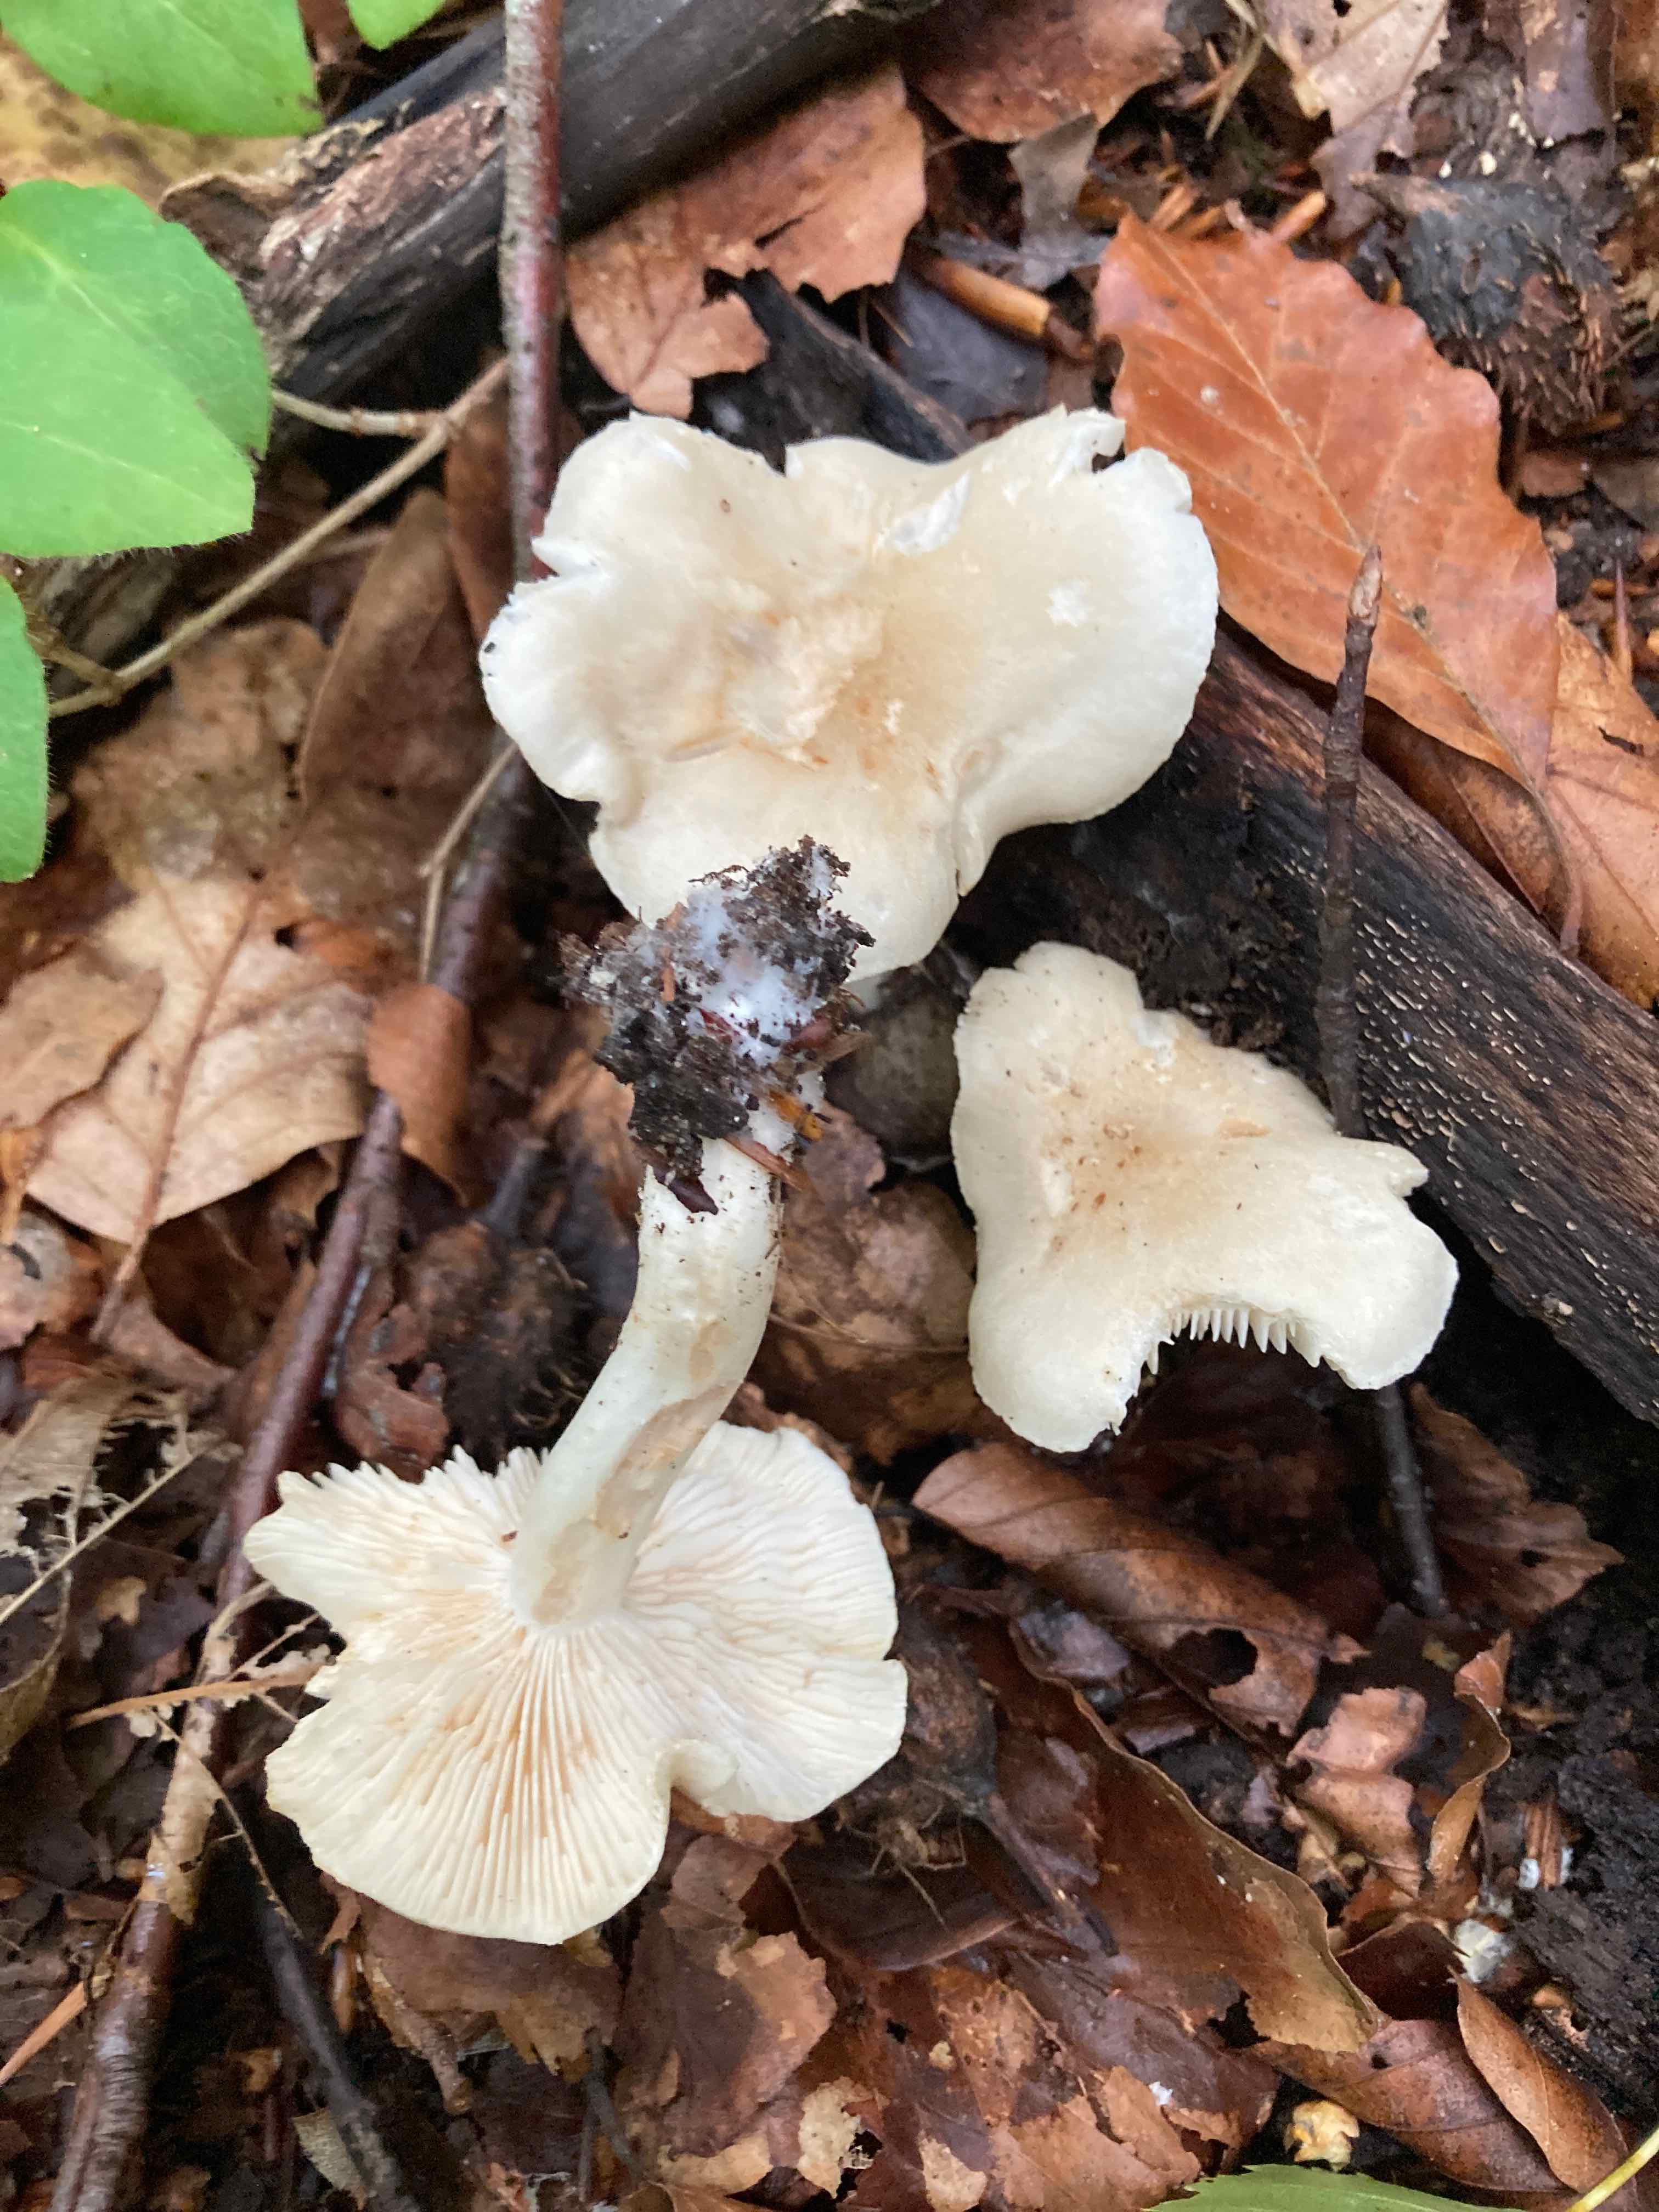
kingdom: Fungi
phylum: Basidiomycota
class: Agaricomycetes
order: Agaricales
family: Tricholomataceae
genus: Tricholoma
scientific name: Tricholoma lascivum
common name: stinkende ridderhat
